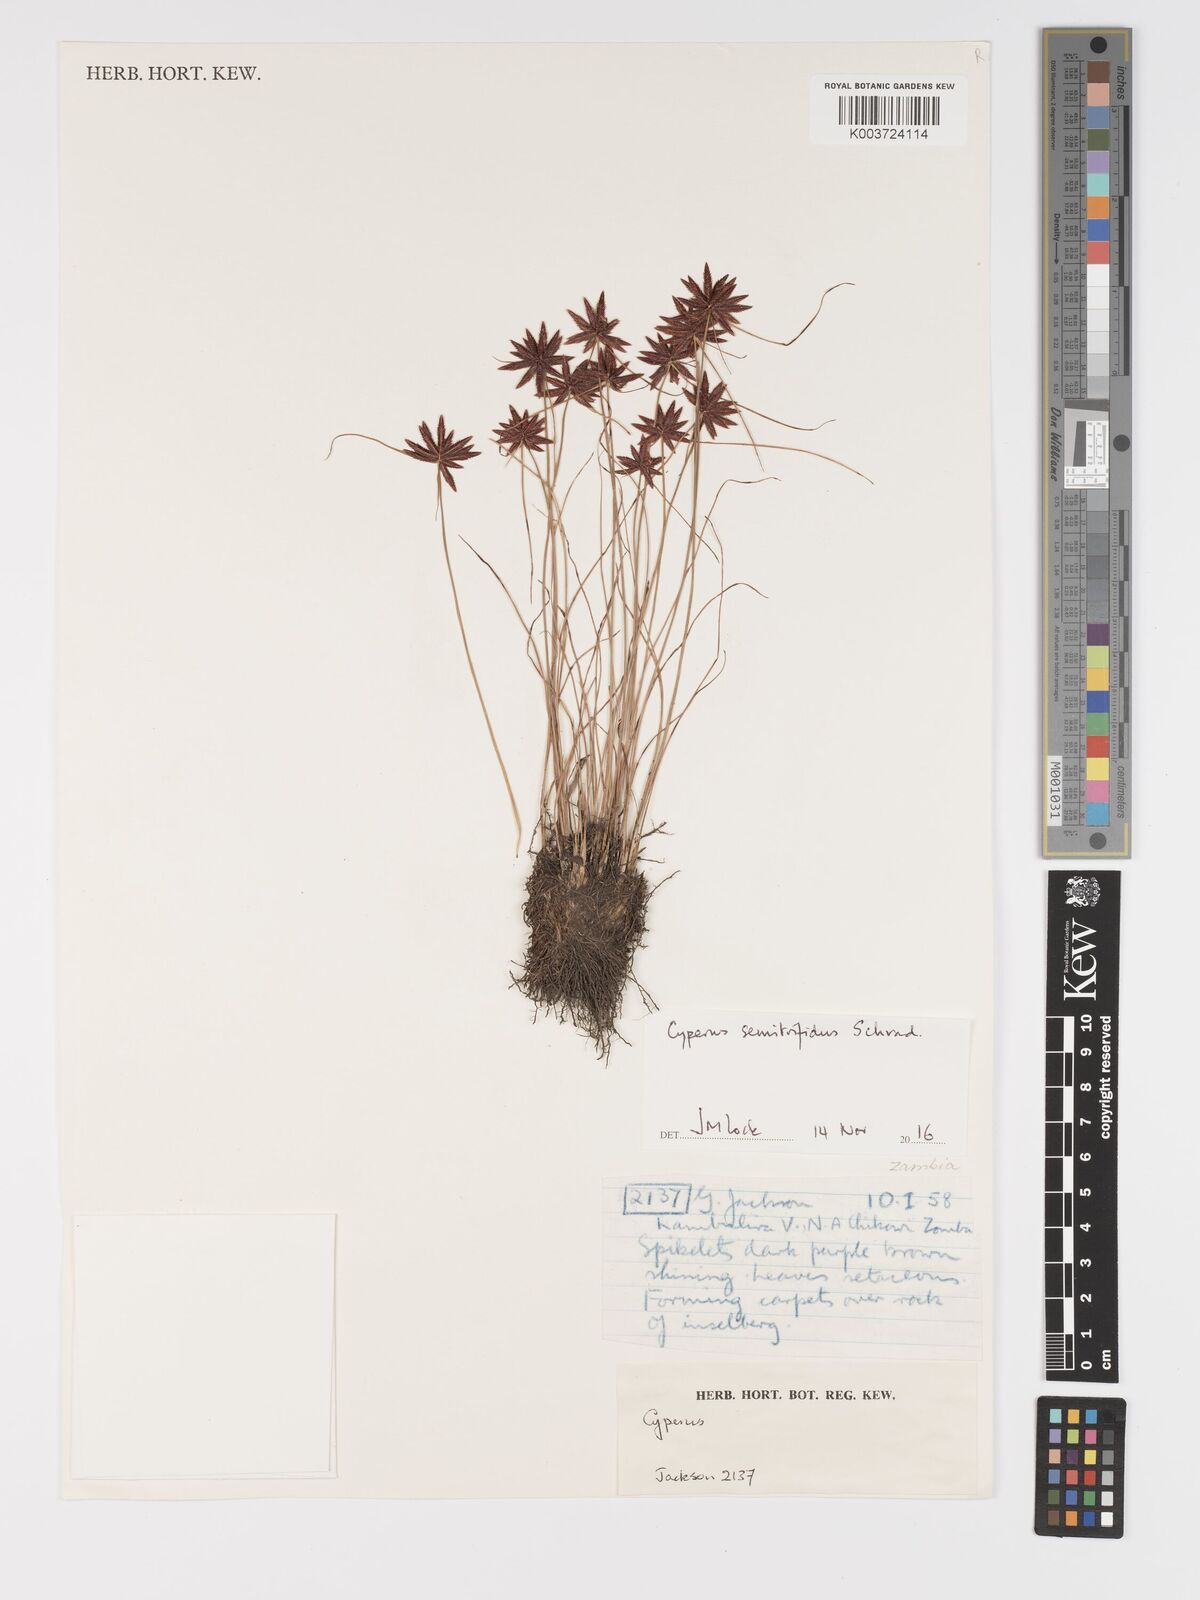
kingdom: Plantae
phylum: Tracheophyta
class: Liliopsida
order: Poales
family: Cyperaceae
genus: Cyperus
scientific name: Cyperus semitrifidus
